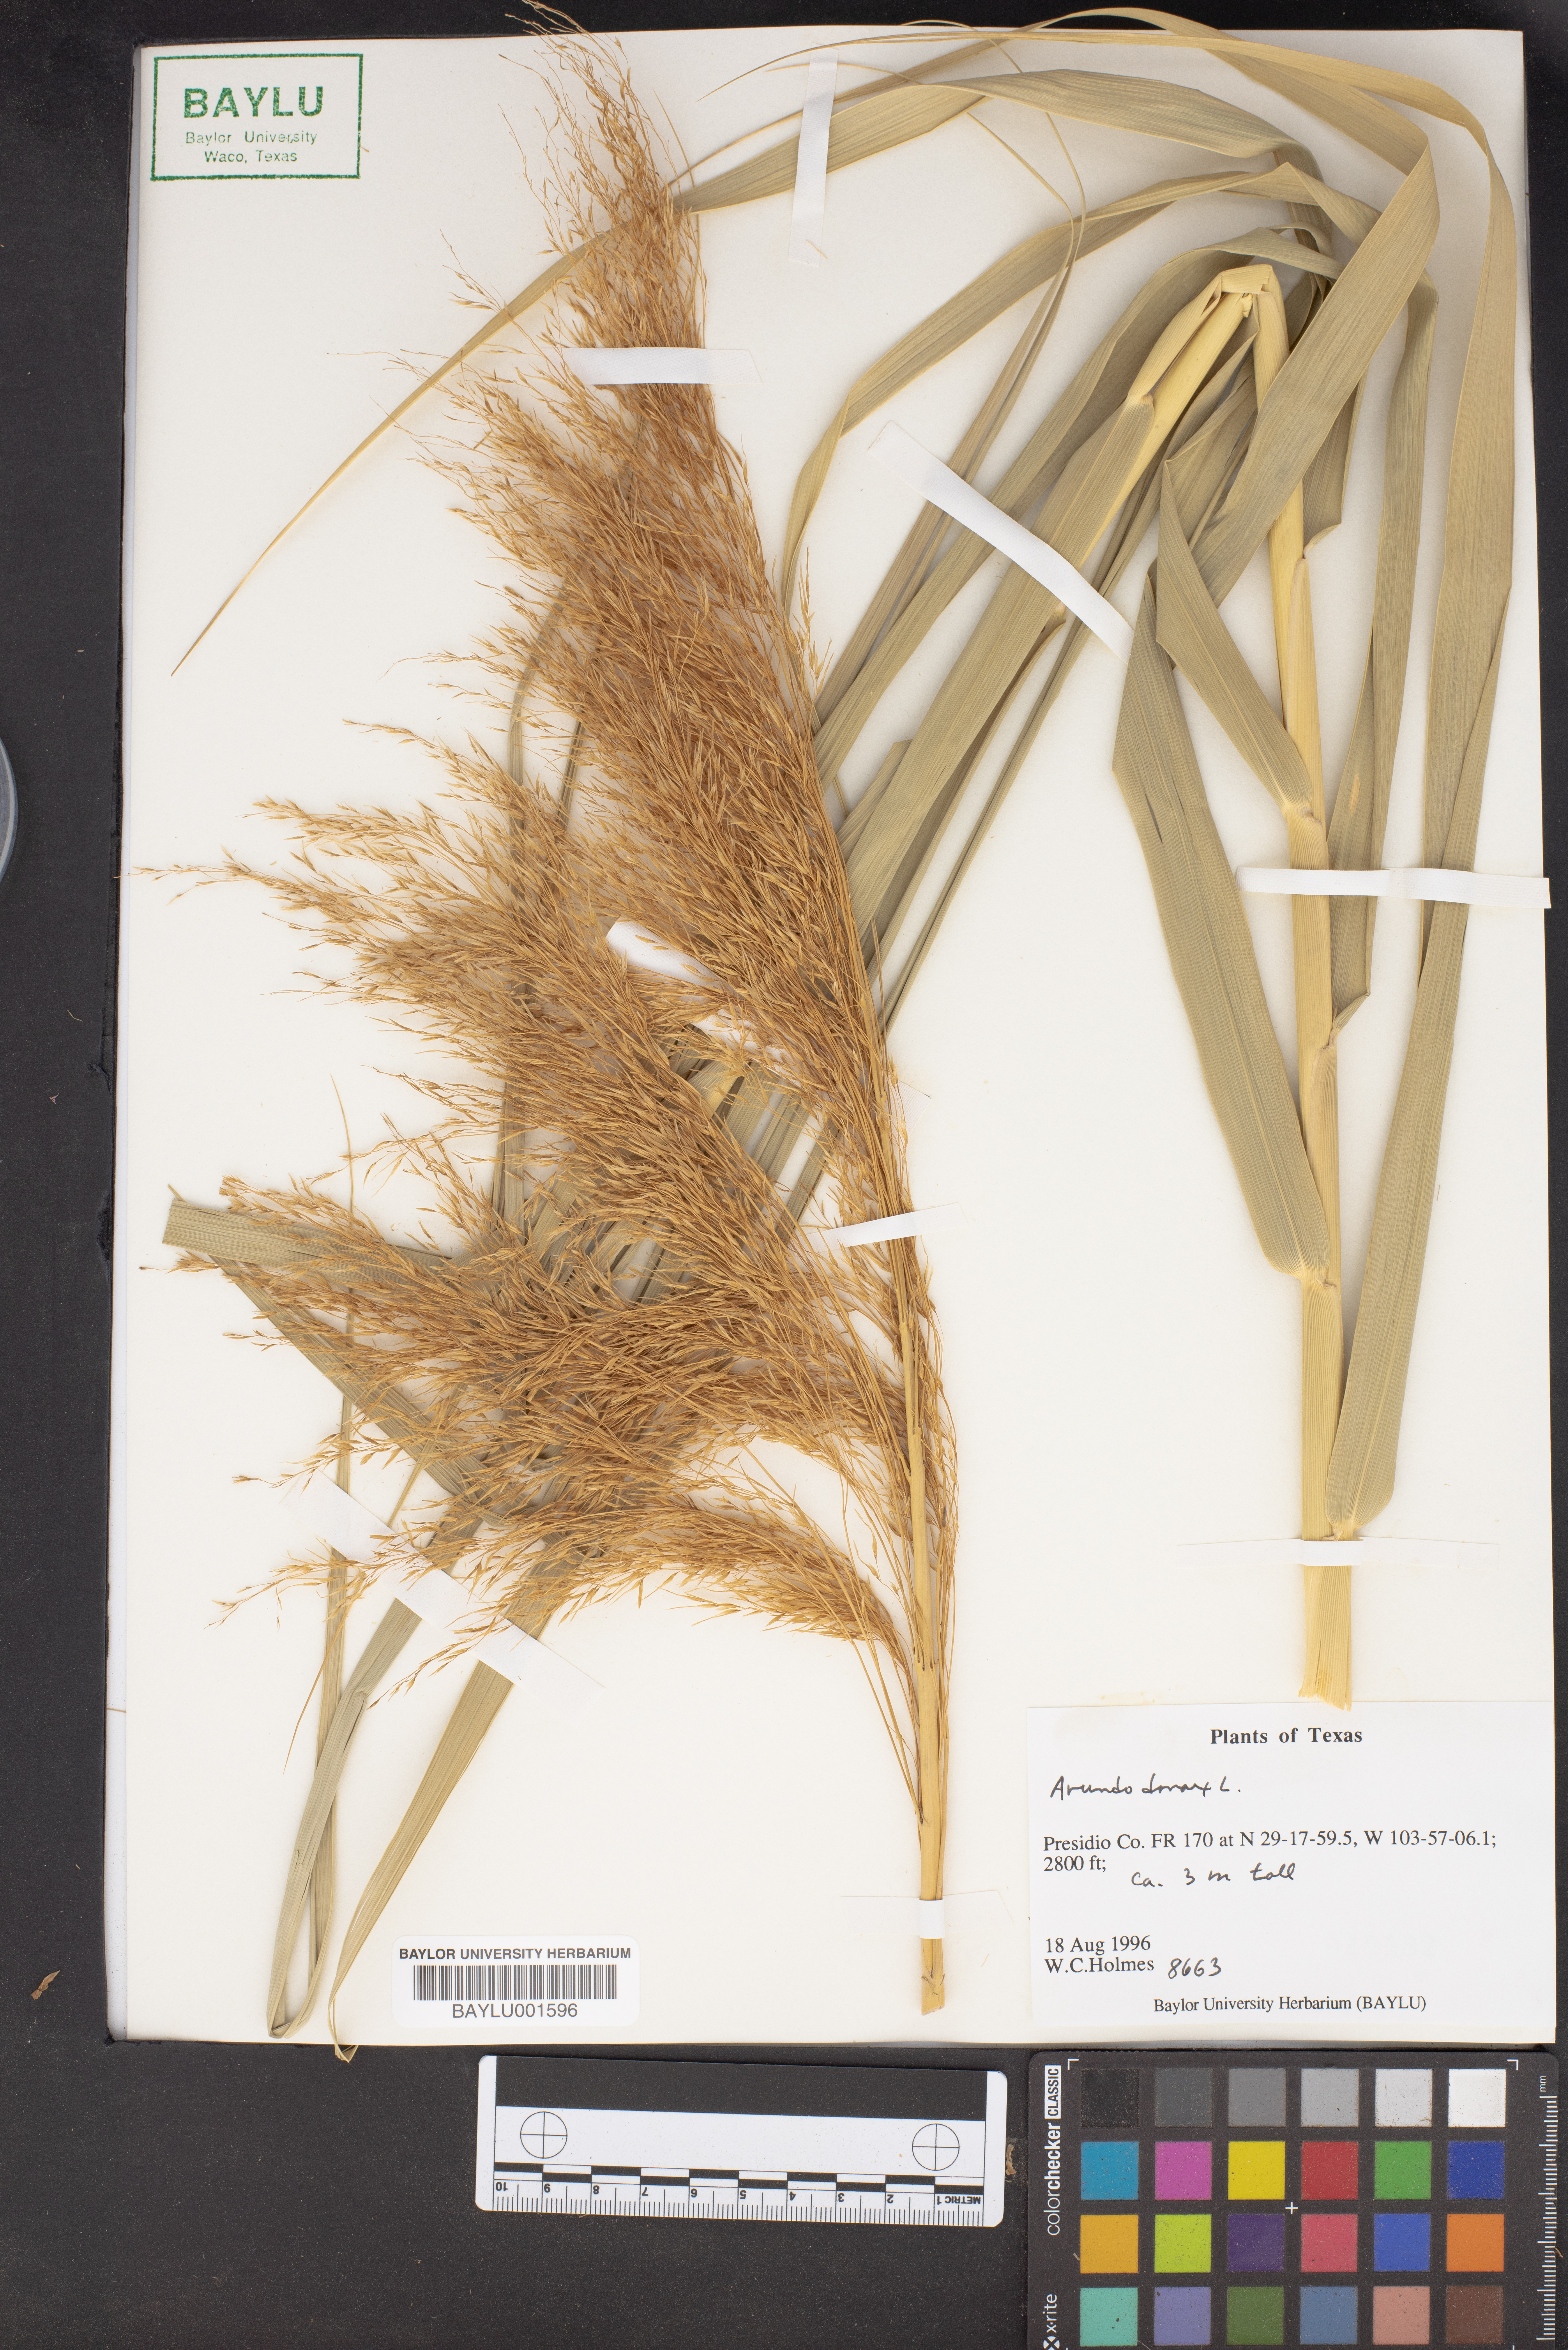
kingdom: Plantae
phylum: Tracheophyta
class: Liliopsida
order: Poales
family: Poaceae
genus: Arundo
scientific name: Arundo donax
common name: Giant reed
